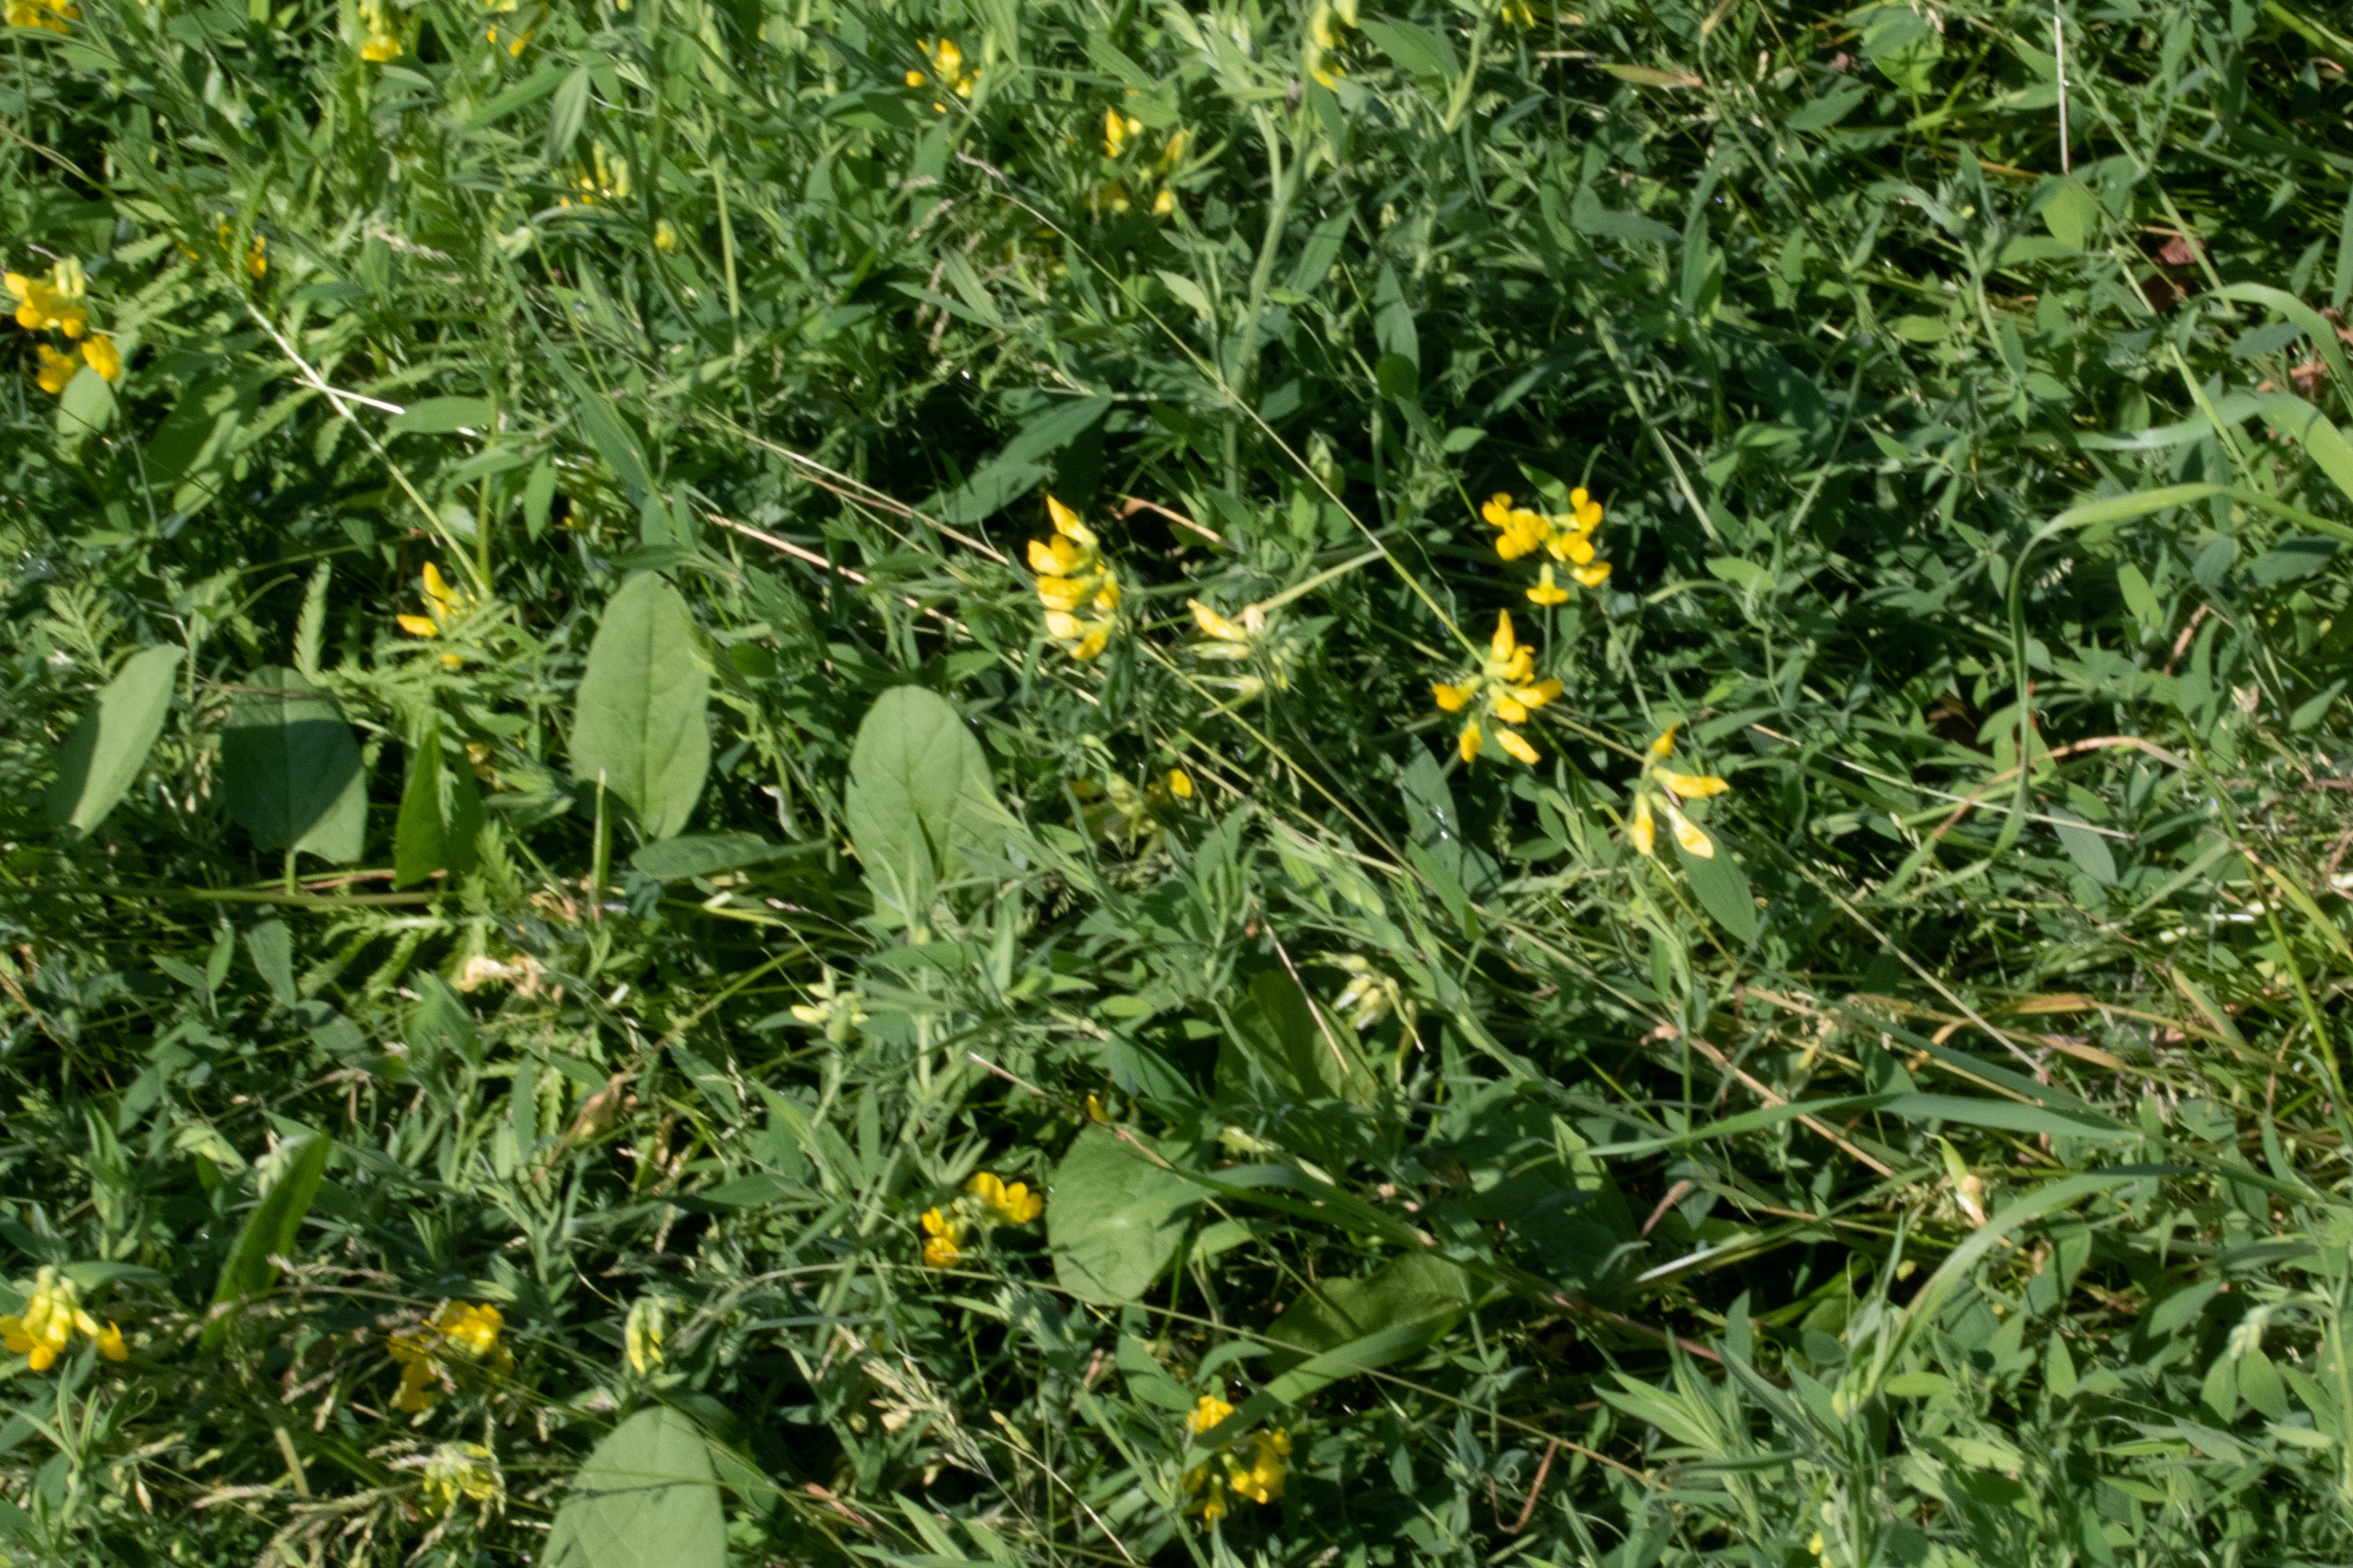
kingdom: Plantae
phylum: Tracheophyta
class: Magnoliopsida
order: Fabales
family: Fabaceae
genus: Lathyrus
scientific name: Lathyrus pratensis
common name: Gul fladbælg
